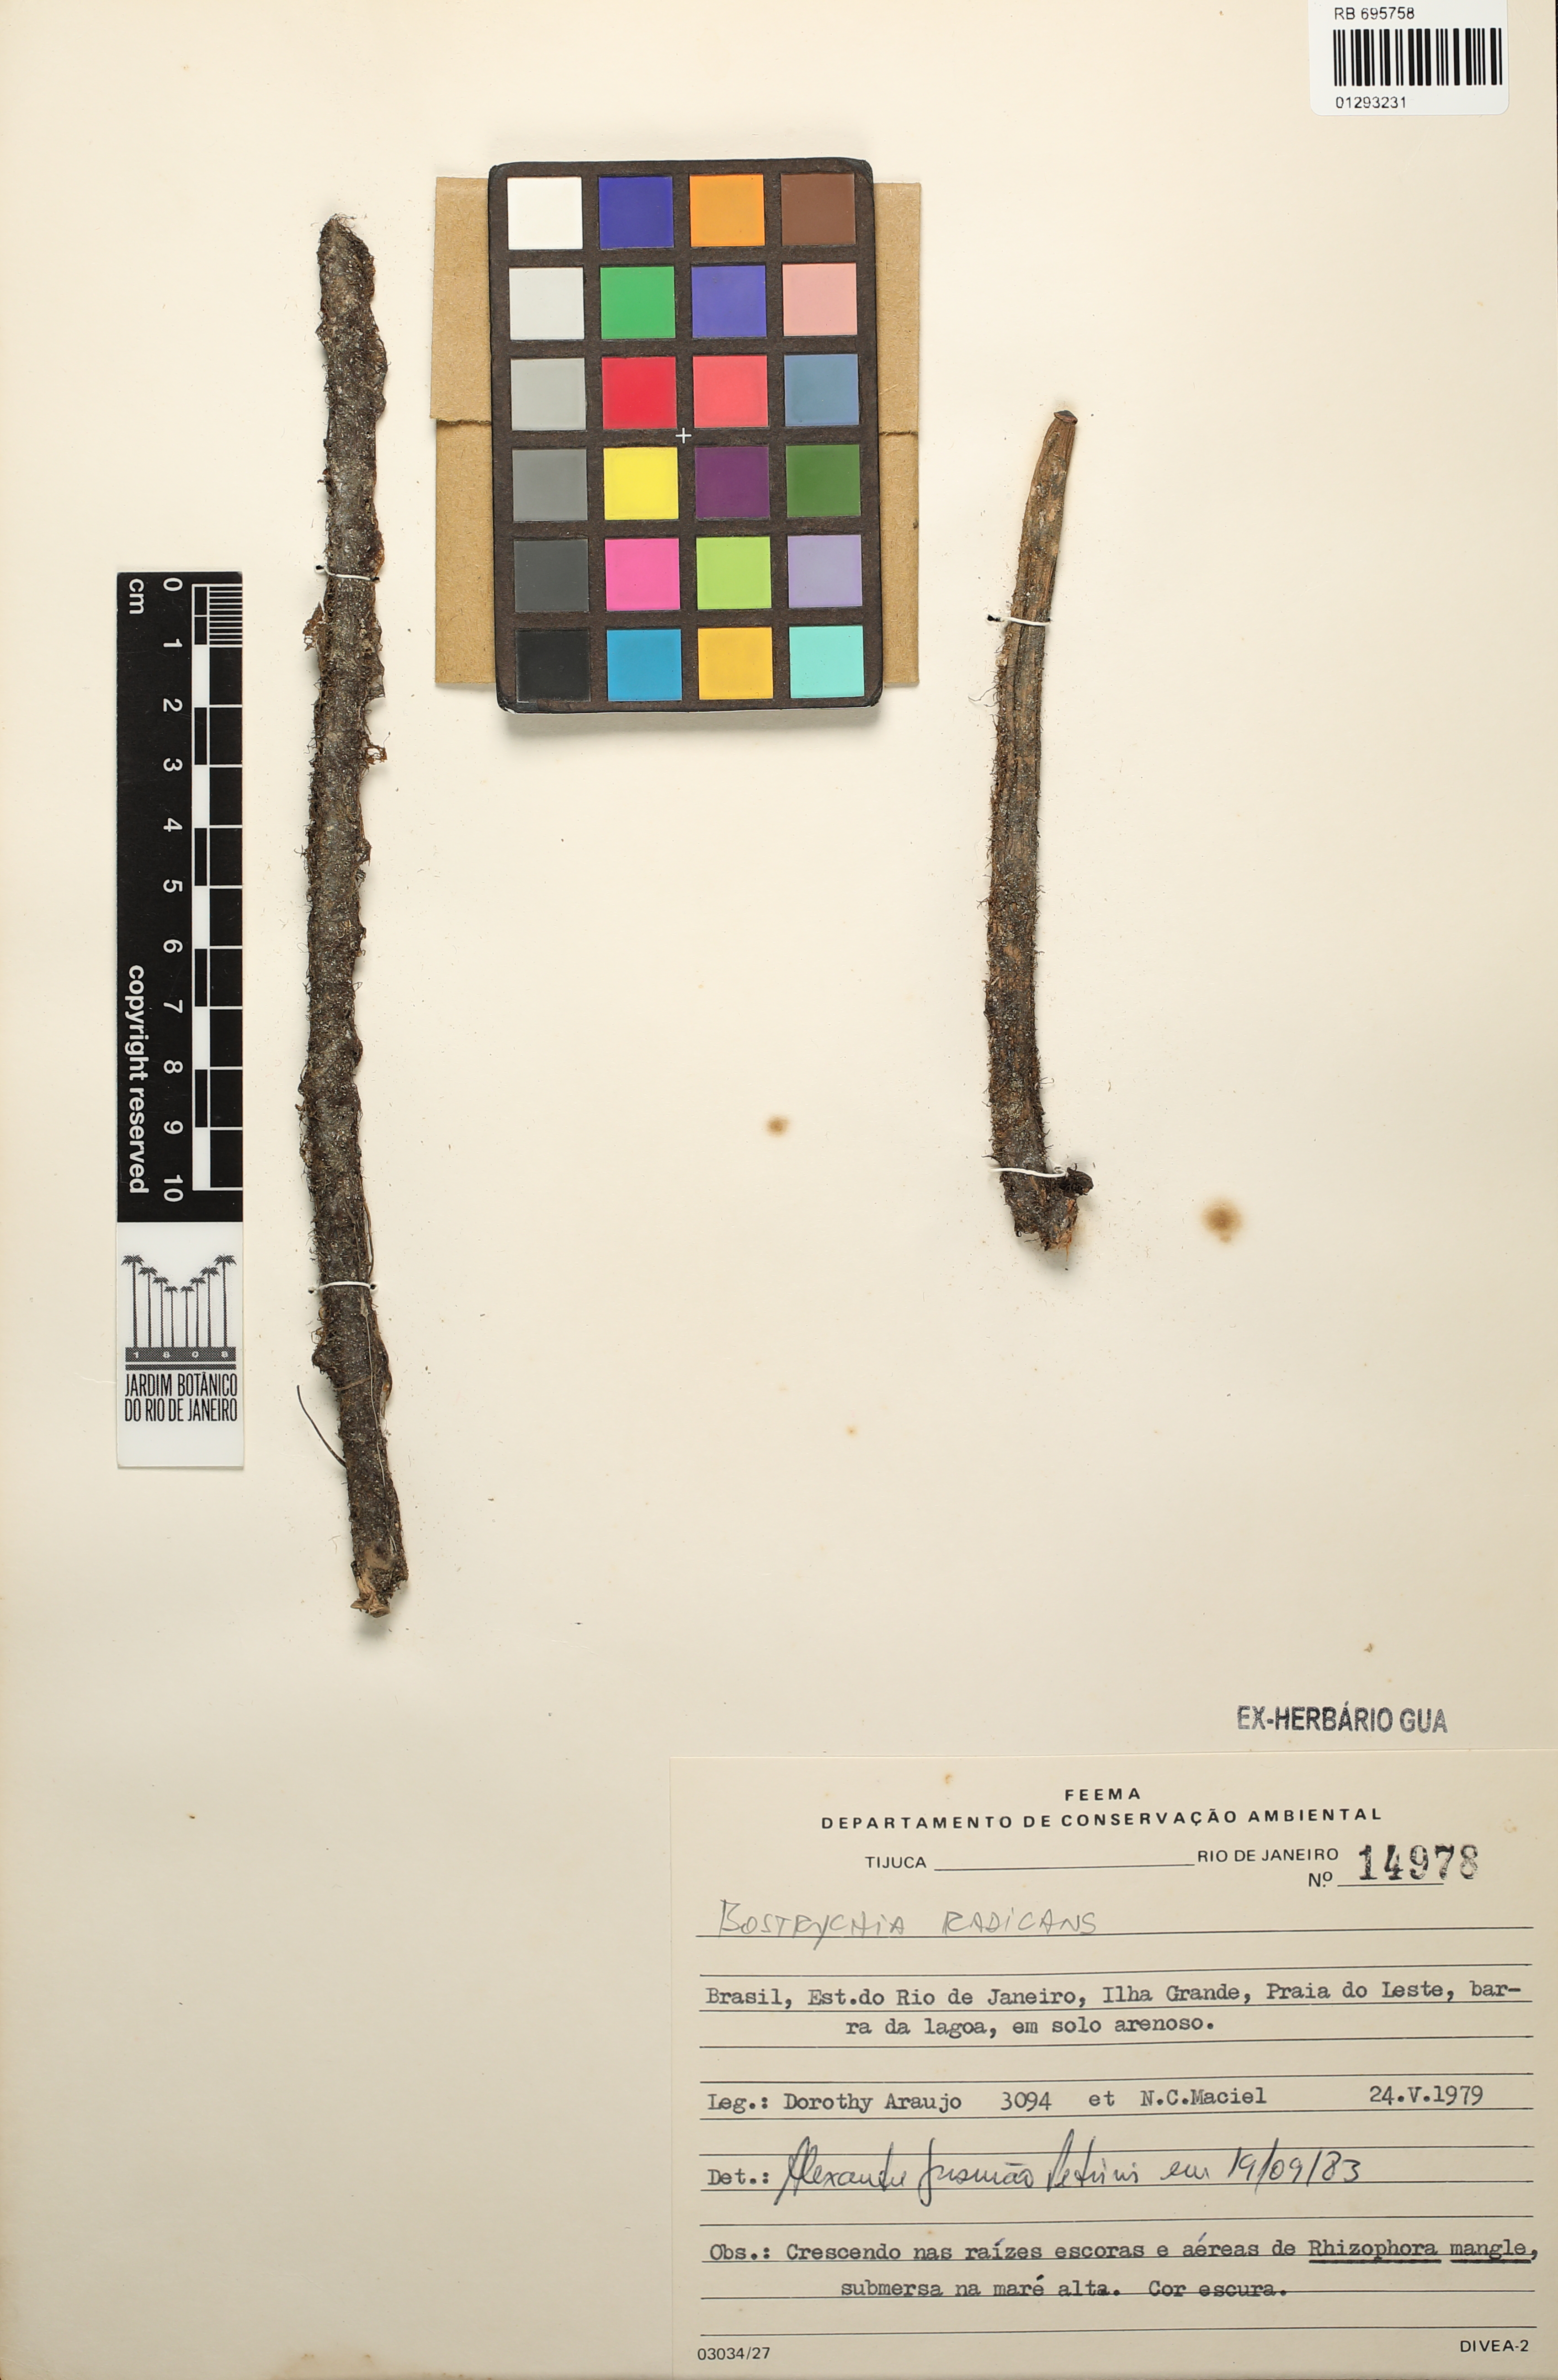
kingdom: Plantae
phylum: Rhodophyta
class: Florideophyceae
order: Ceramiales
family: Rhodomelaceae
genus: Bostrychia
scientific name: Bostrychia radicans
